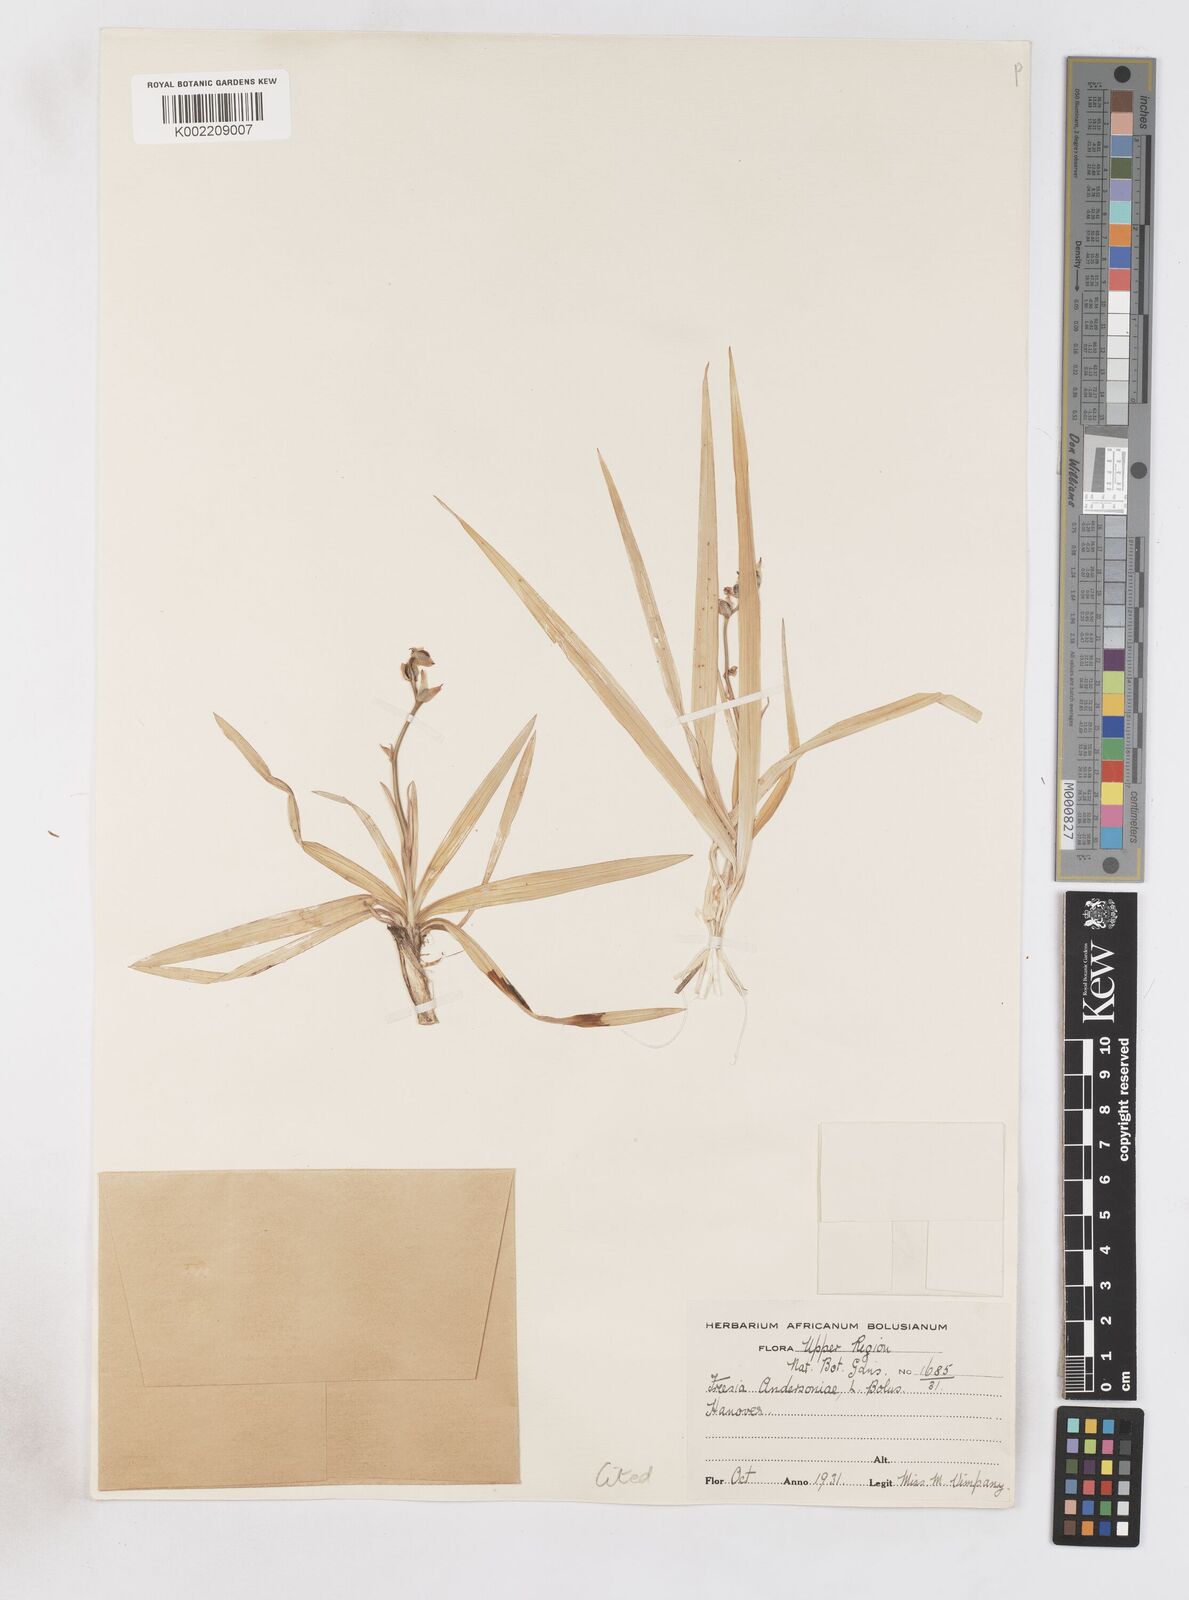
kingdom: Plantae
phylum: Tracheophyta
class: Liliopsida
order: Asparagales
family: Iridaceae
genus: Freesia
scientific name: Freesia andersoniae
